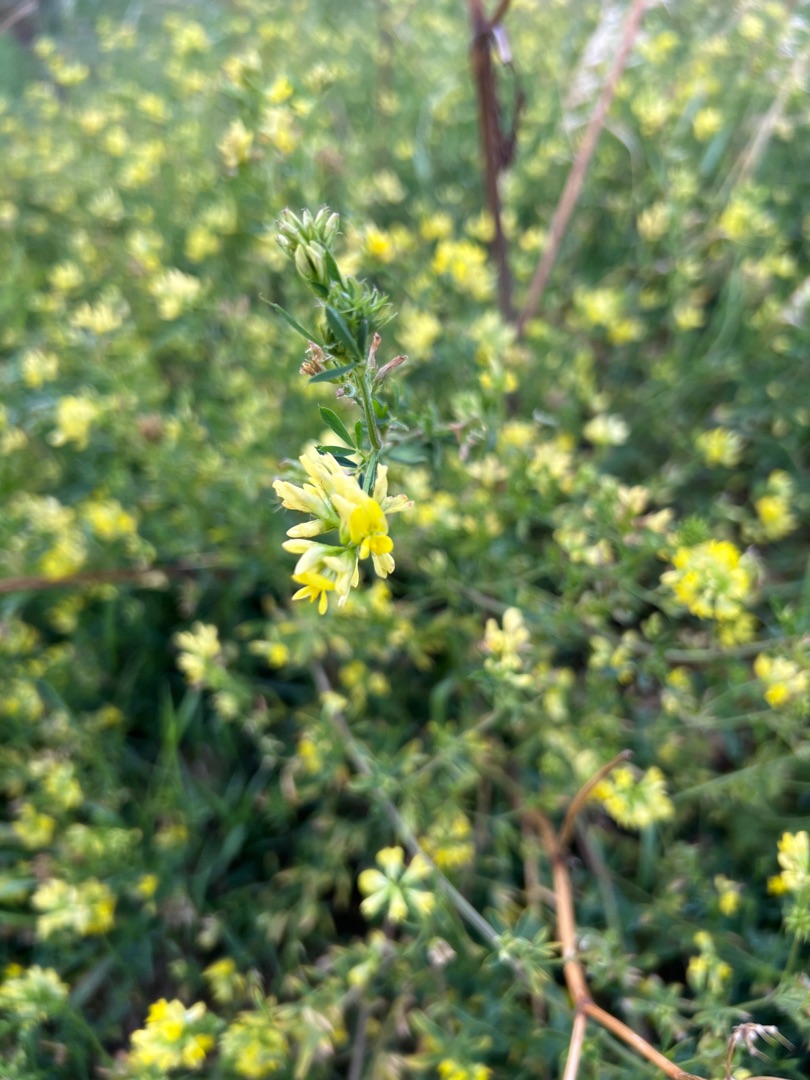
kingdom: Plantae
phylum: Tracheophyta
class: Magnoliopsida
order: Fabales
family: Fabaceae
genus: Medicago
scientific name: Medicago varia
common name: Sand-lucerne
